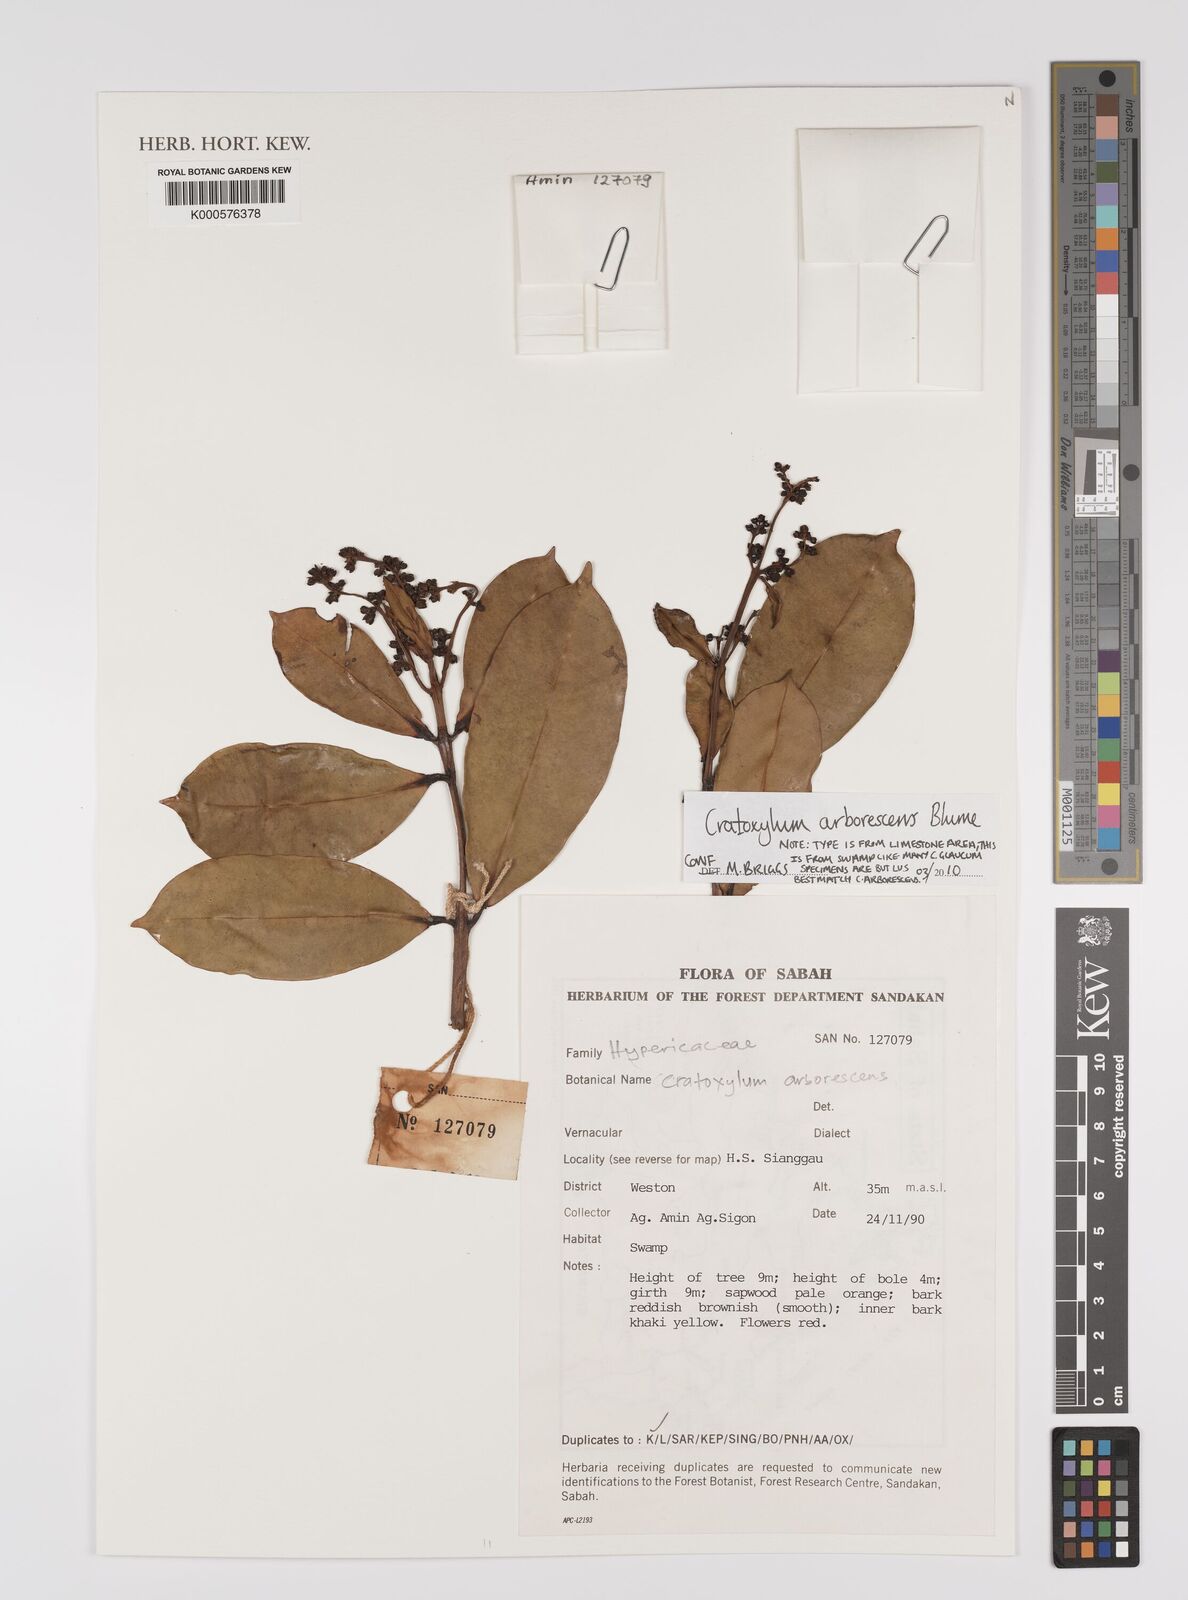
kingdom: Plantae
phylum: Tracheophyta
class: Magnoliopsida
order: Malpighiales
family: Hypericaceae
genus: Cratoxylum
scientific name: Cratoxylum arborescens
